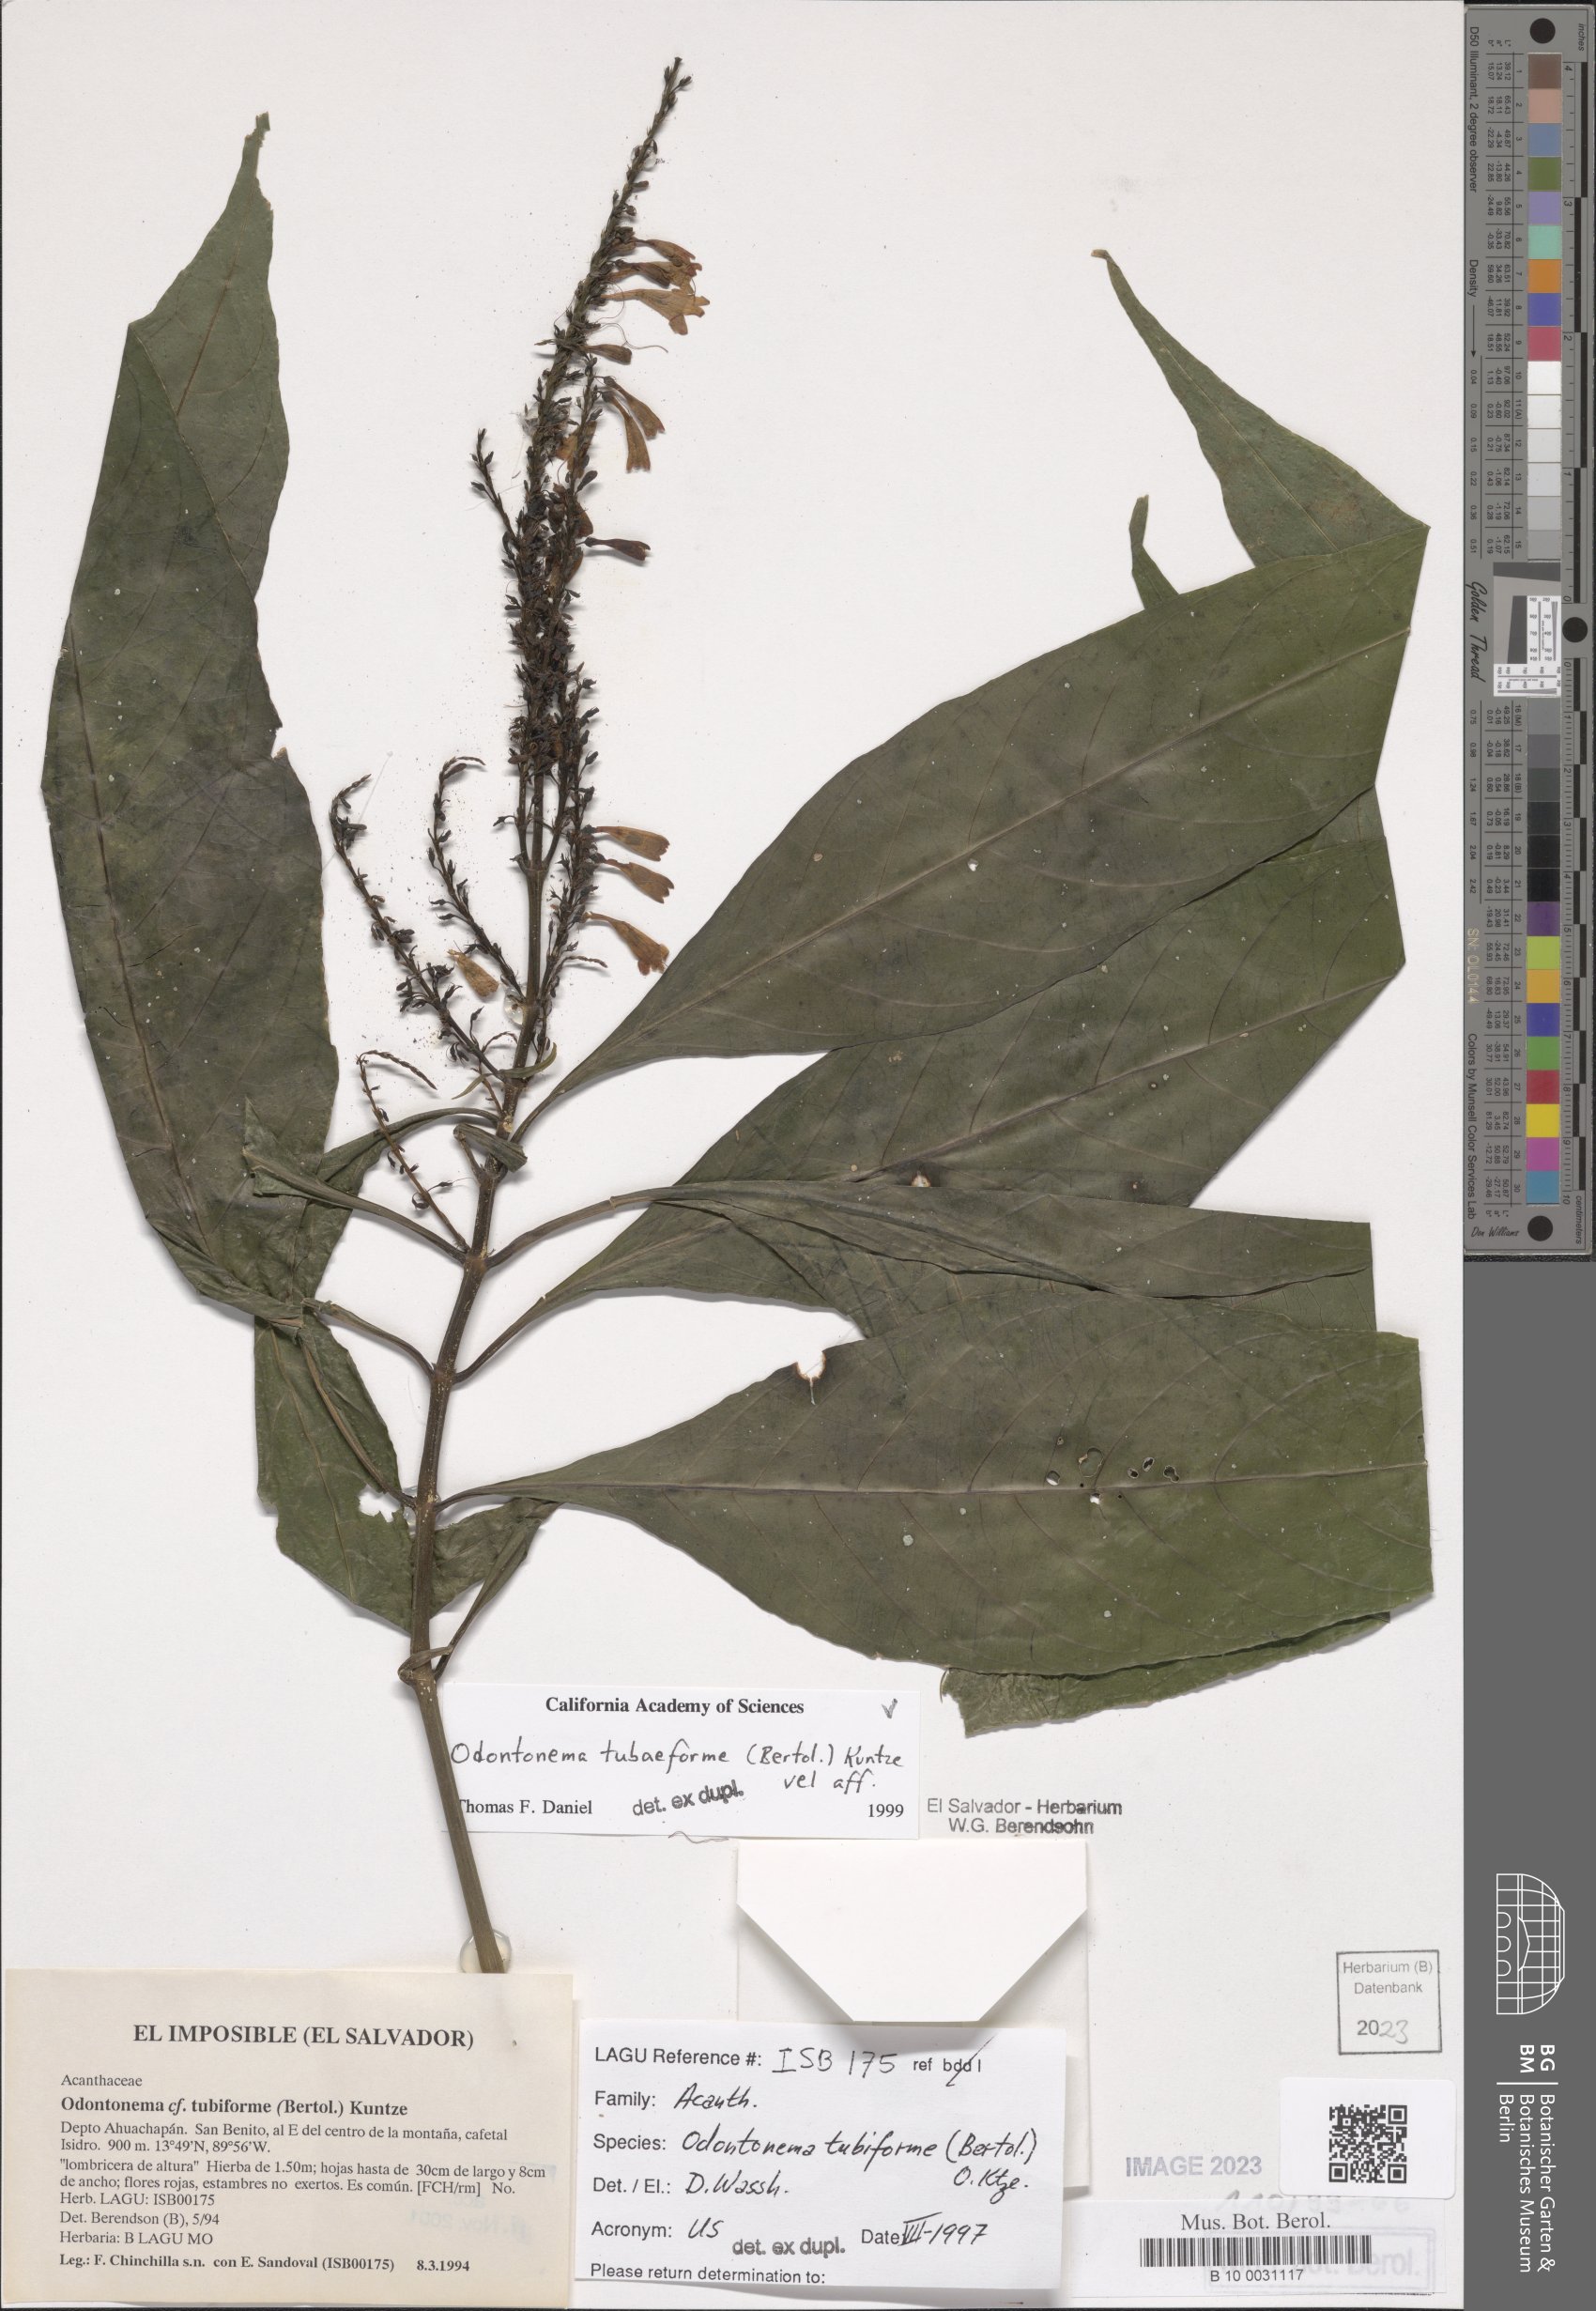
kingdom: Plantae
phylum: Tracheophyta
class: Magnoliopsida
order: Lamiales
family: Acanthaceae
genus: Odontonema
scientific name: Odontonema tubaeforme
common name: Firespike
